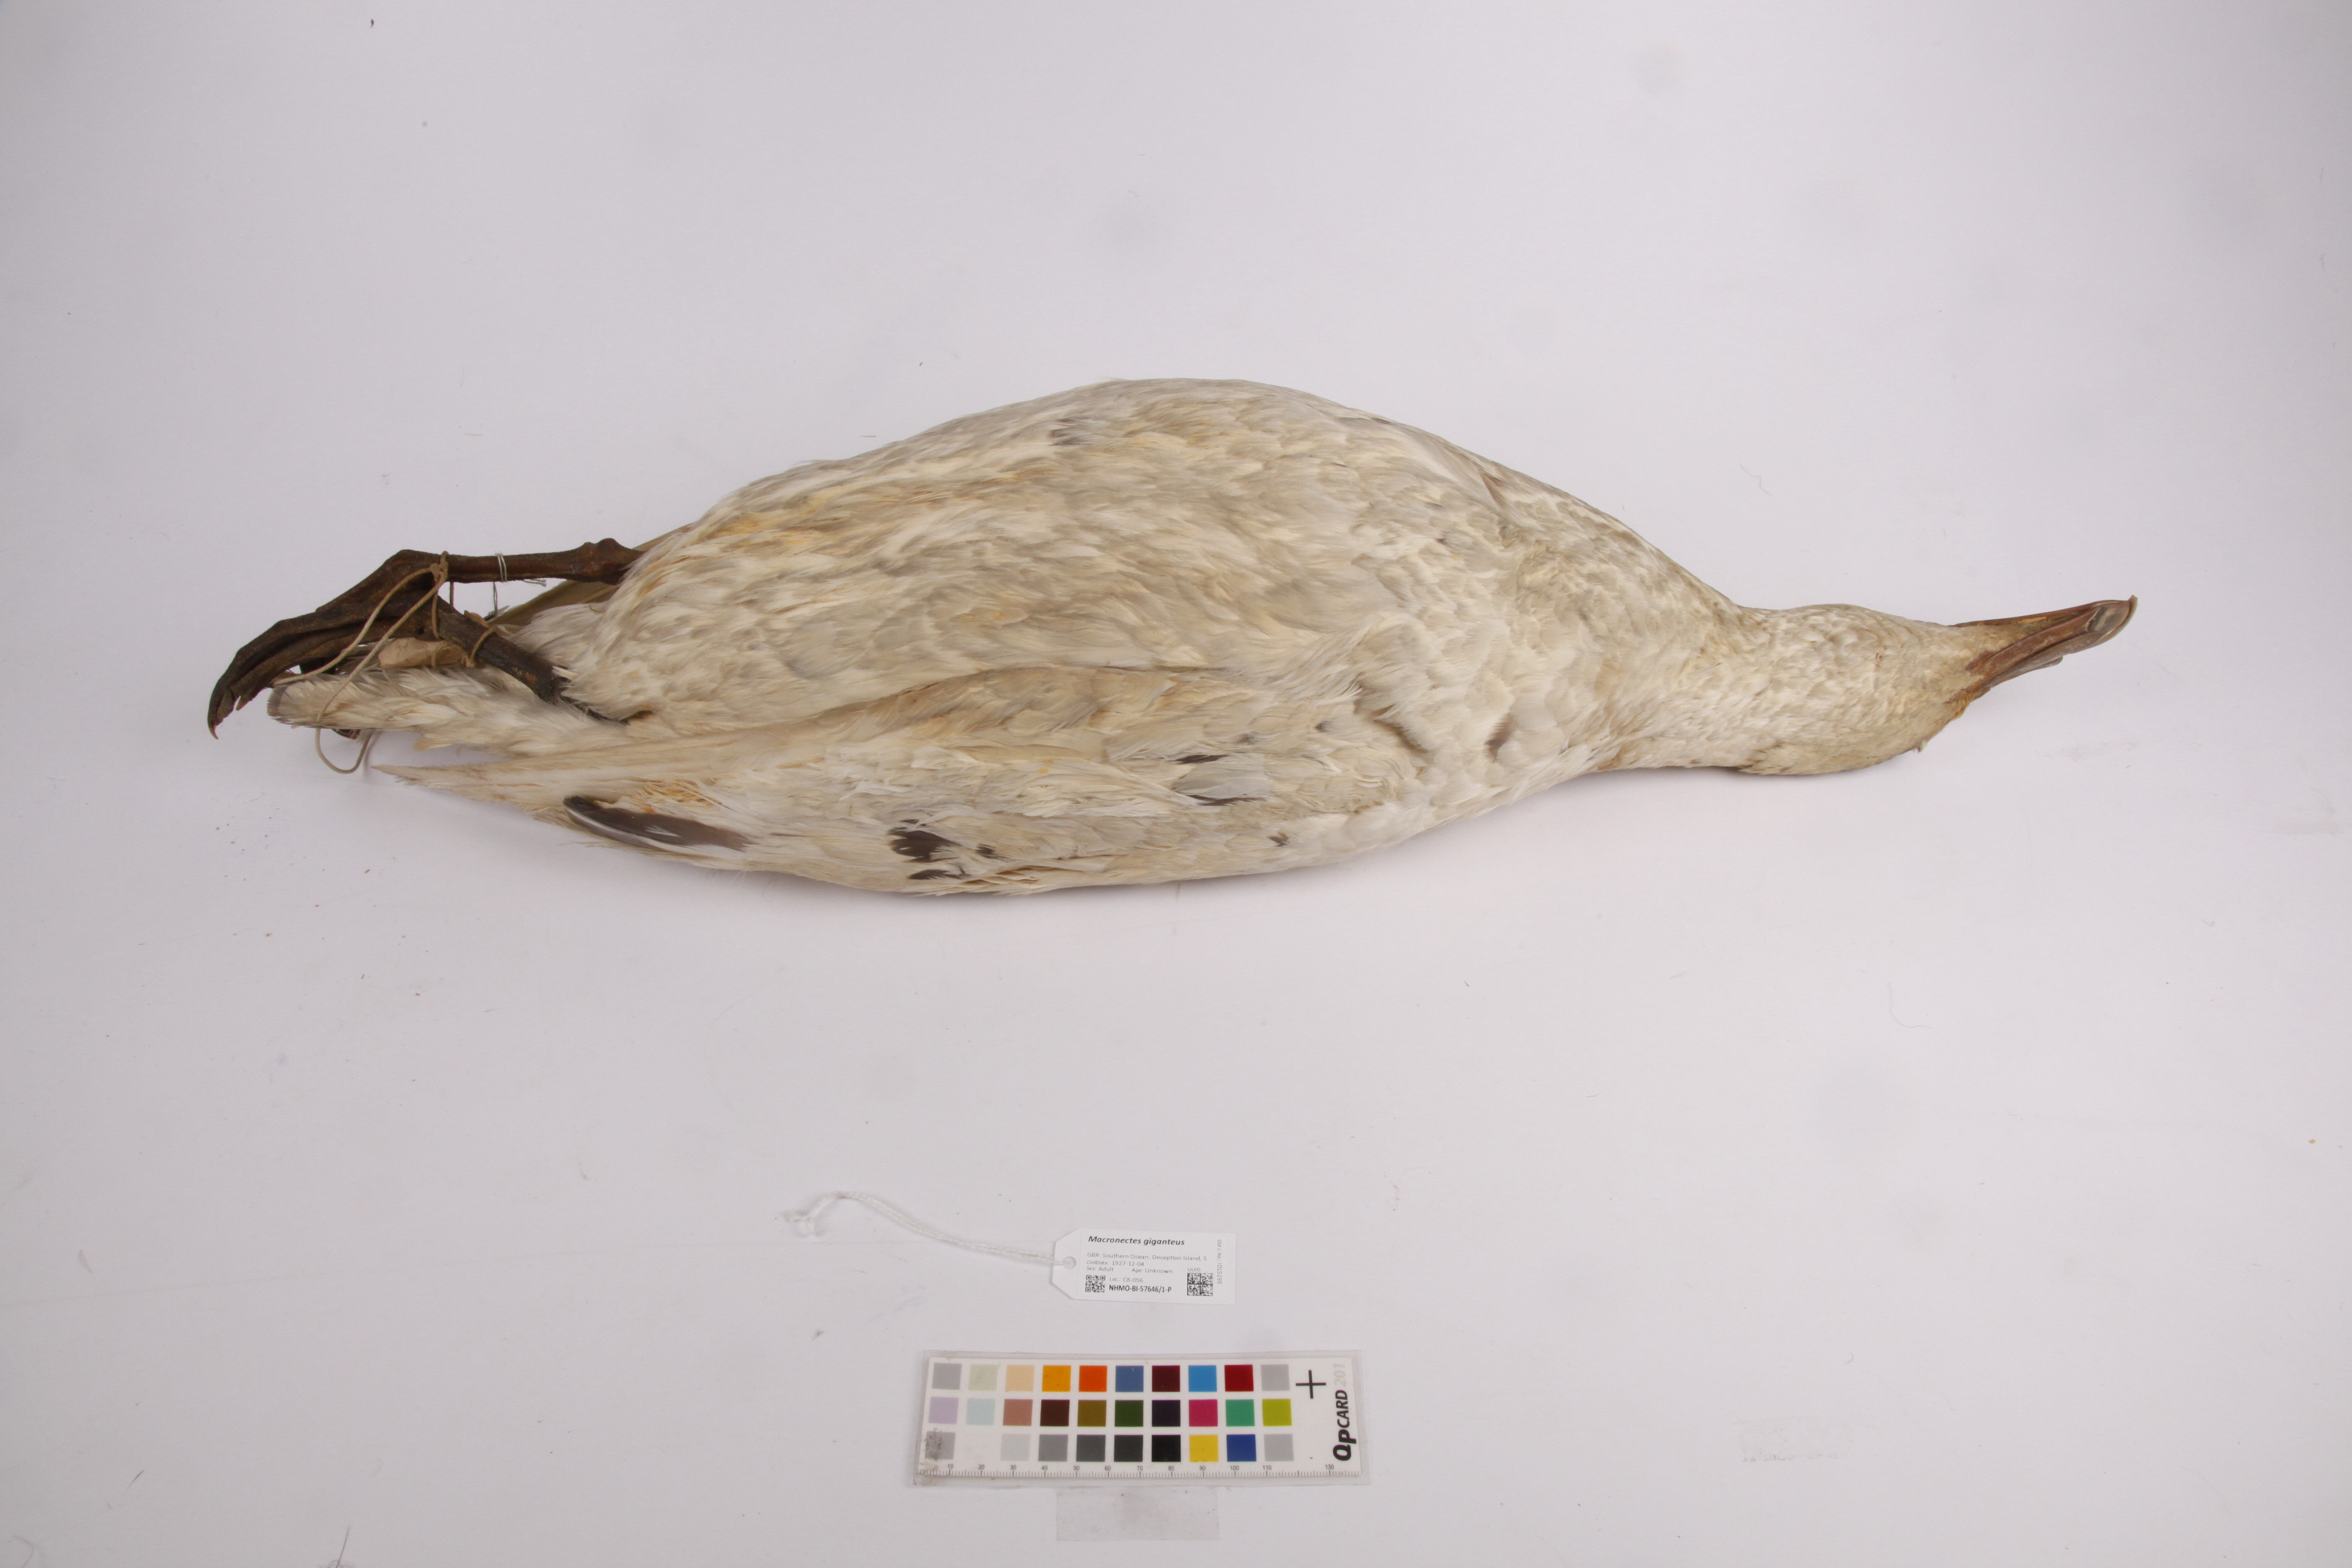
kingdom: Animalia
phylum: Chordata
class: Aves
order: Procellariiformes
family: Procellariidae
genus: Macronectes
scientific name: Macronectes giganteus
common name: Southern giant petrel
